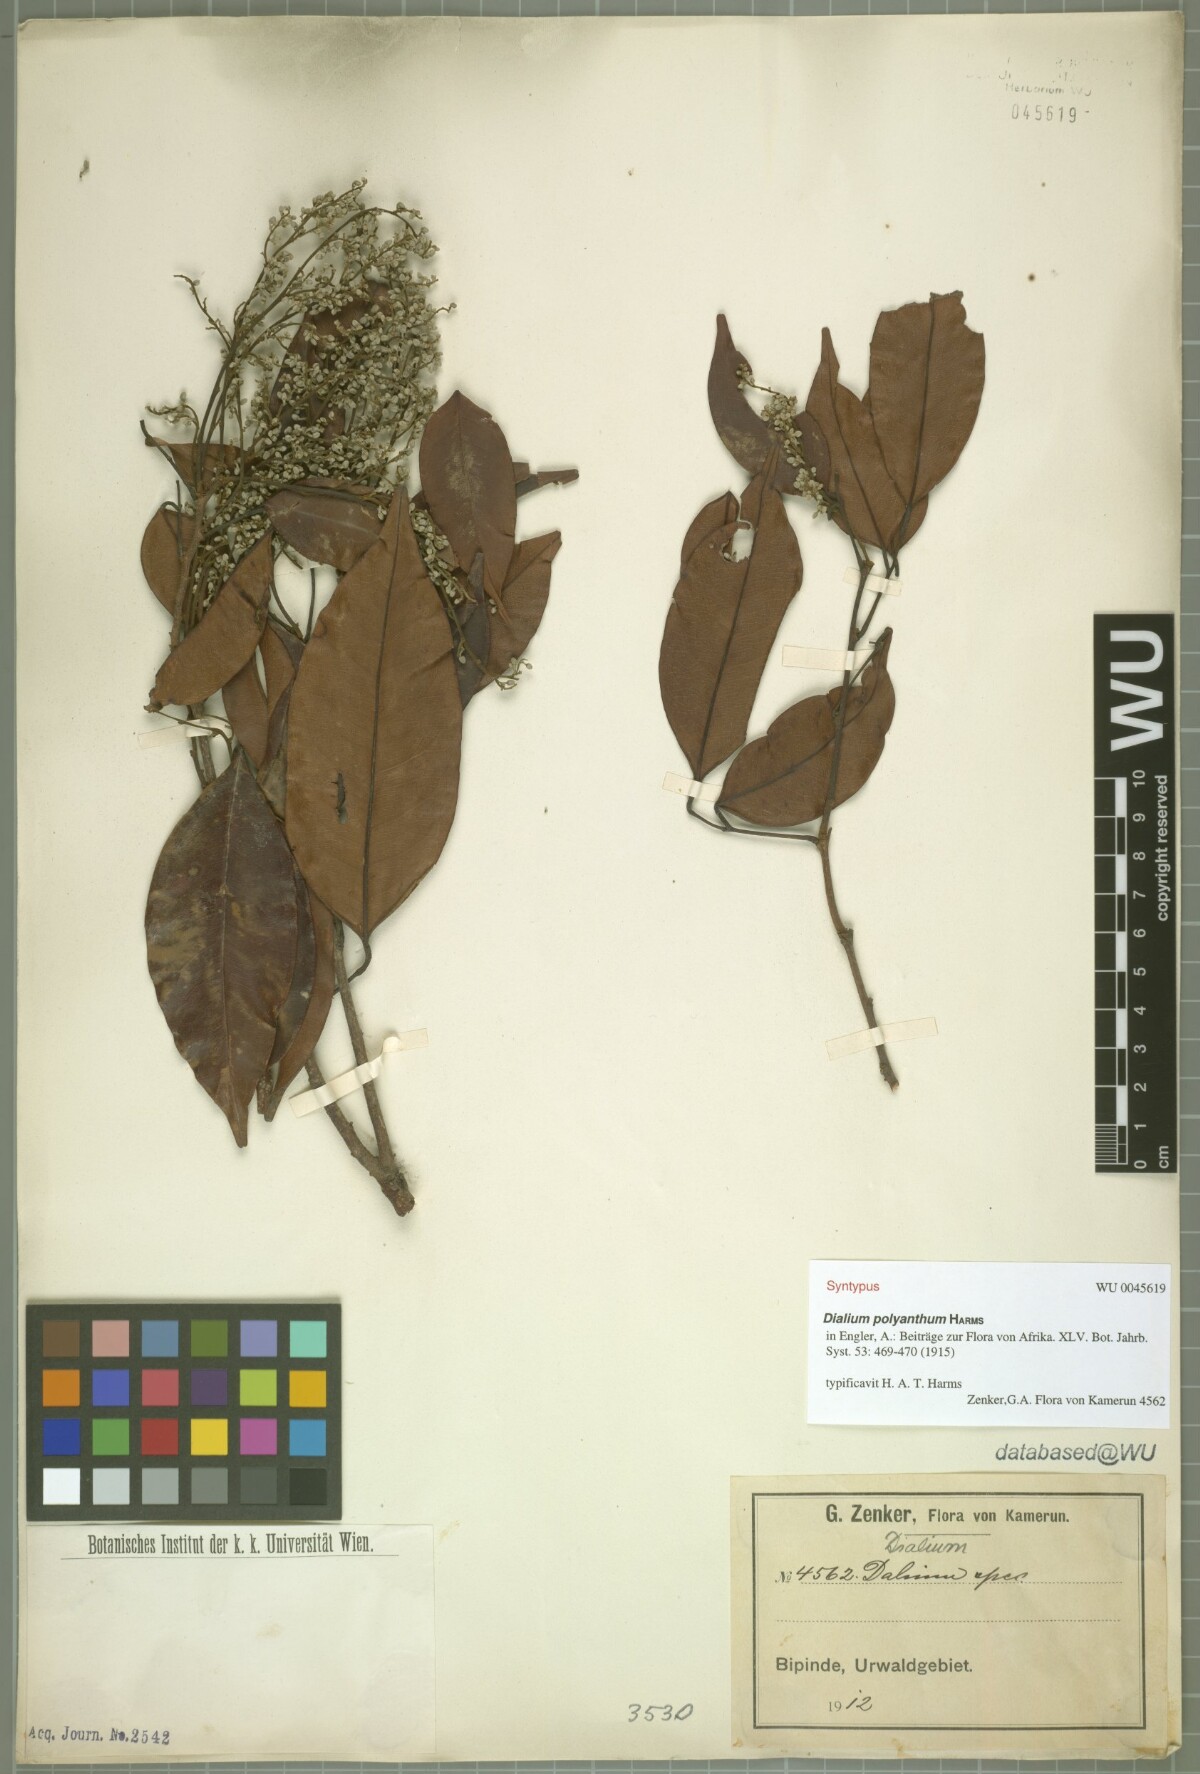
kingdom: Plantae
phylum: Tracheophyta
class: Magnoliopsida
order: Fabales
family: Fabaceae
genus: Dialium
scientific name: Dialium polyanthum
